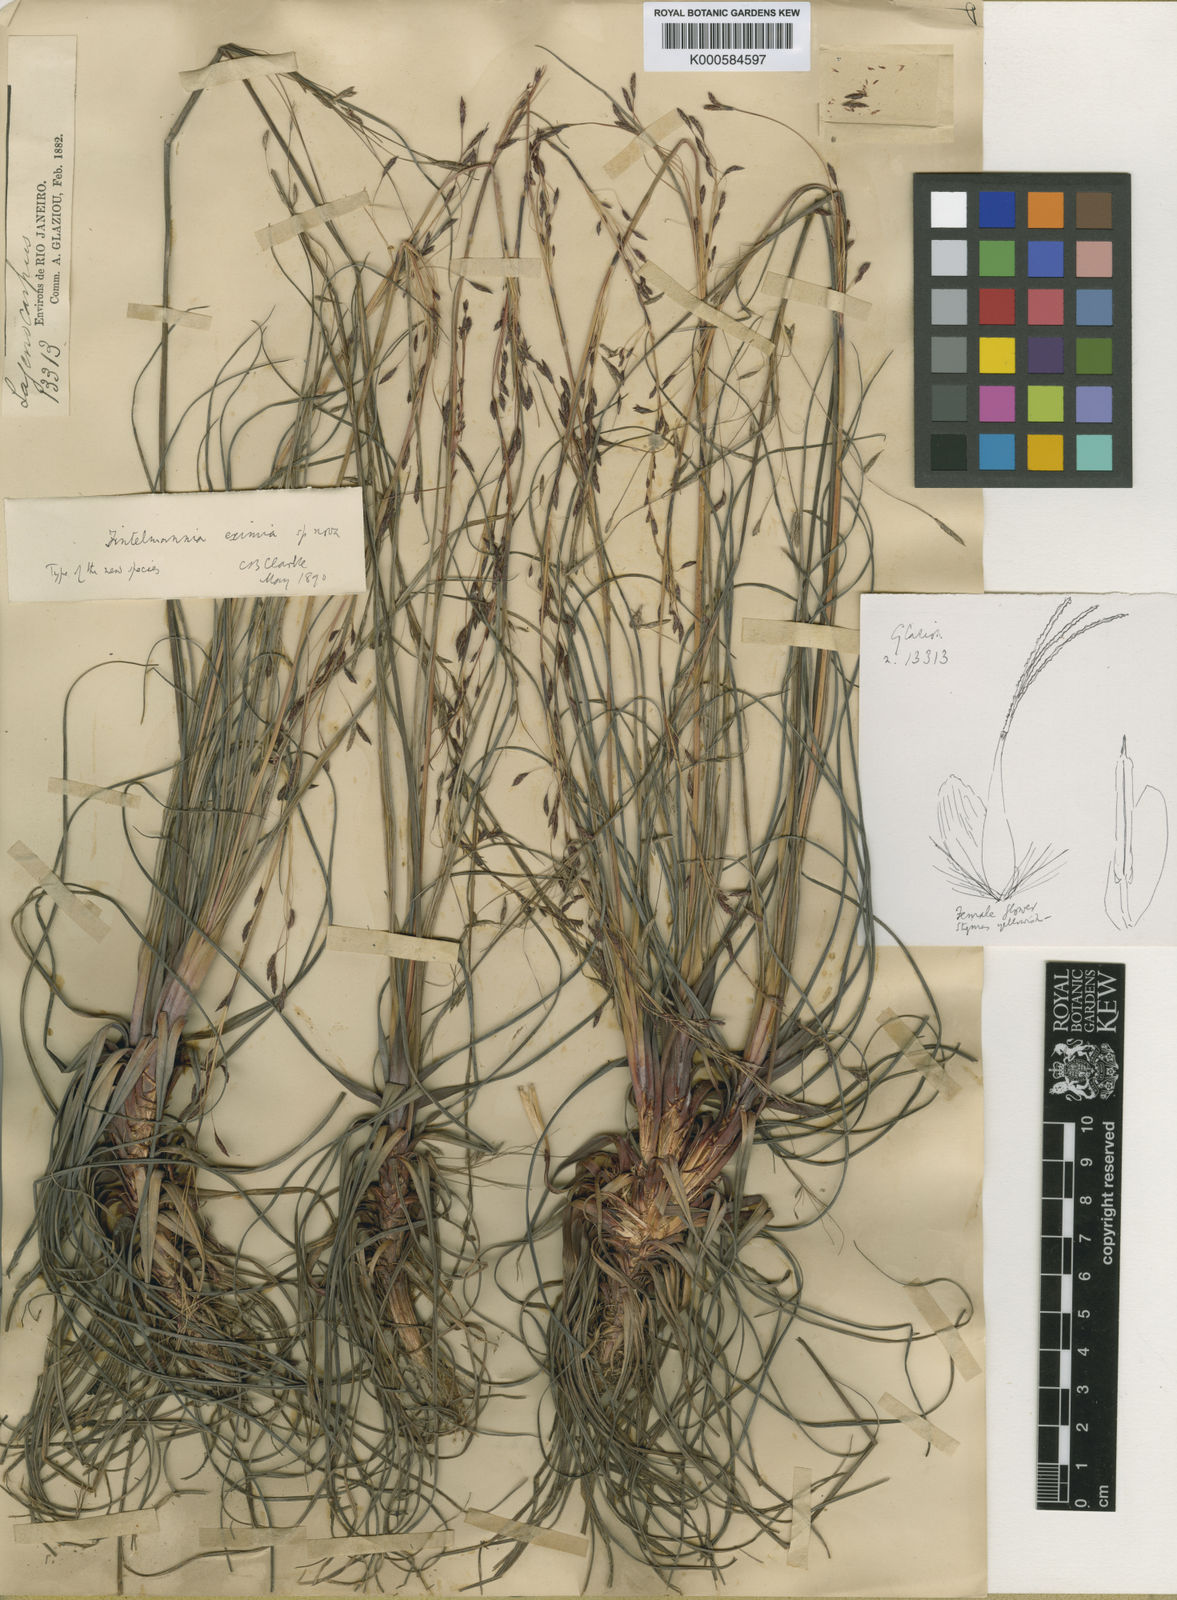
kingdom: Plantae
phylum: Tracheophyta
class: Liliopsida
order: Poales
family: Cyperaceae
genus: Trilepis
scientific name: Trilepis lhotzkiana
